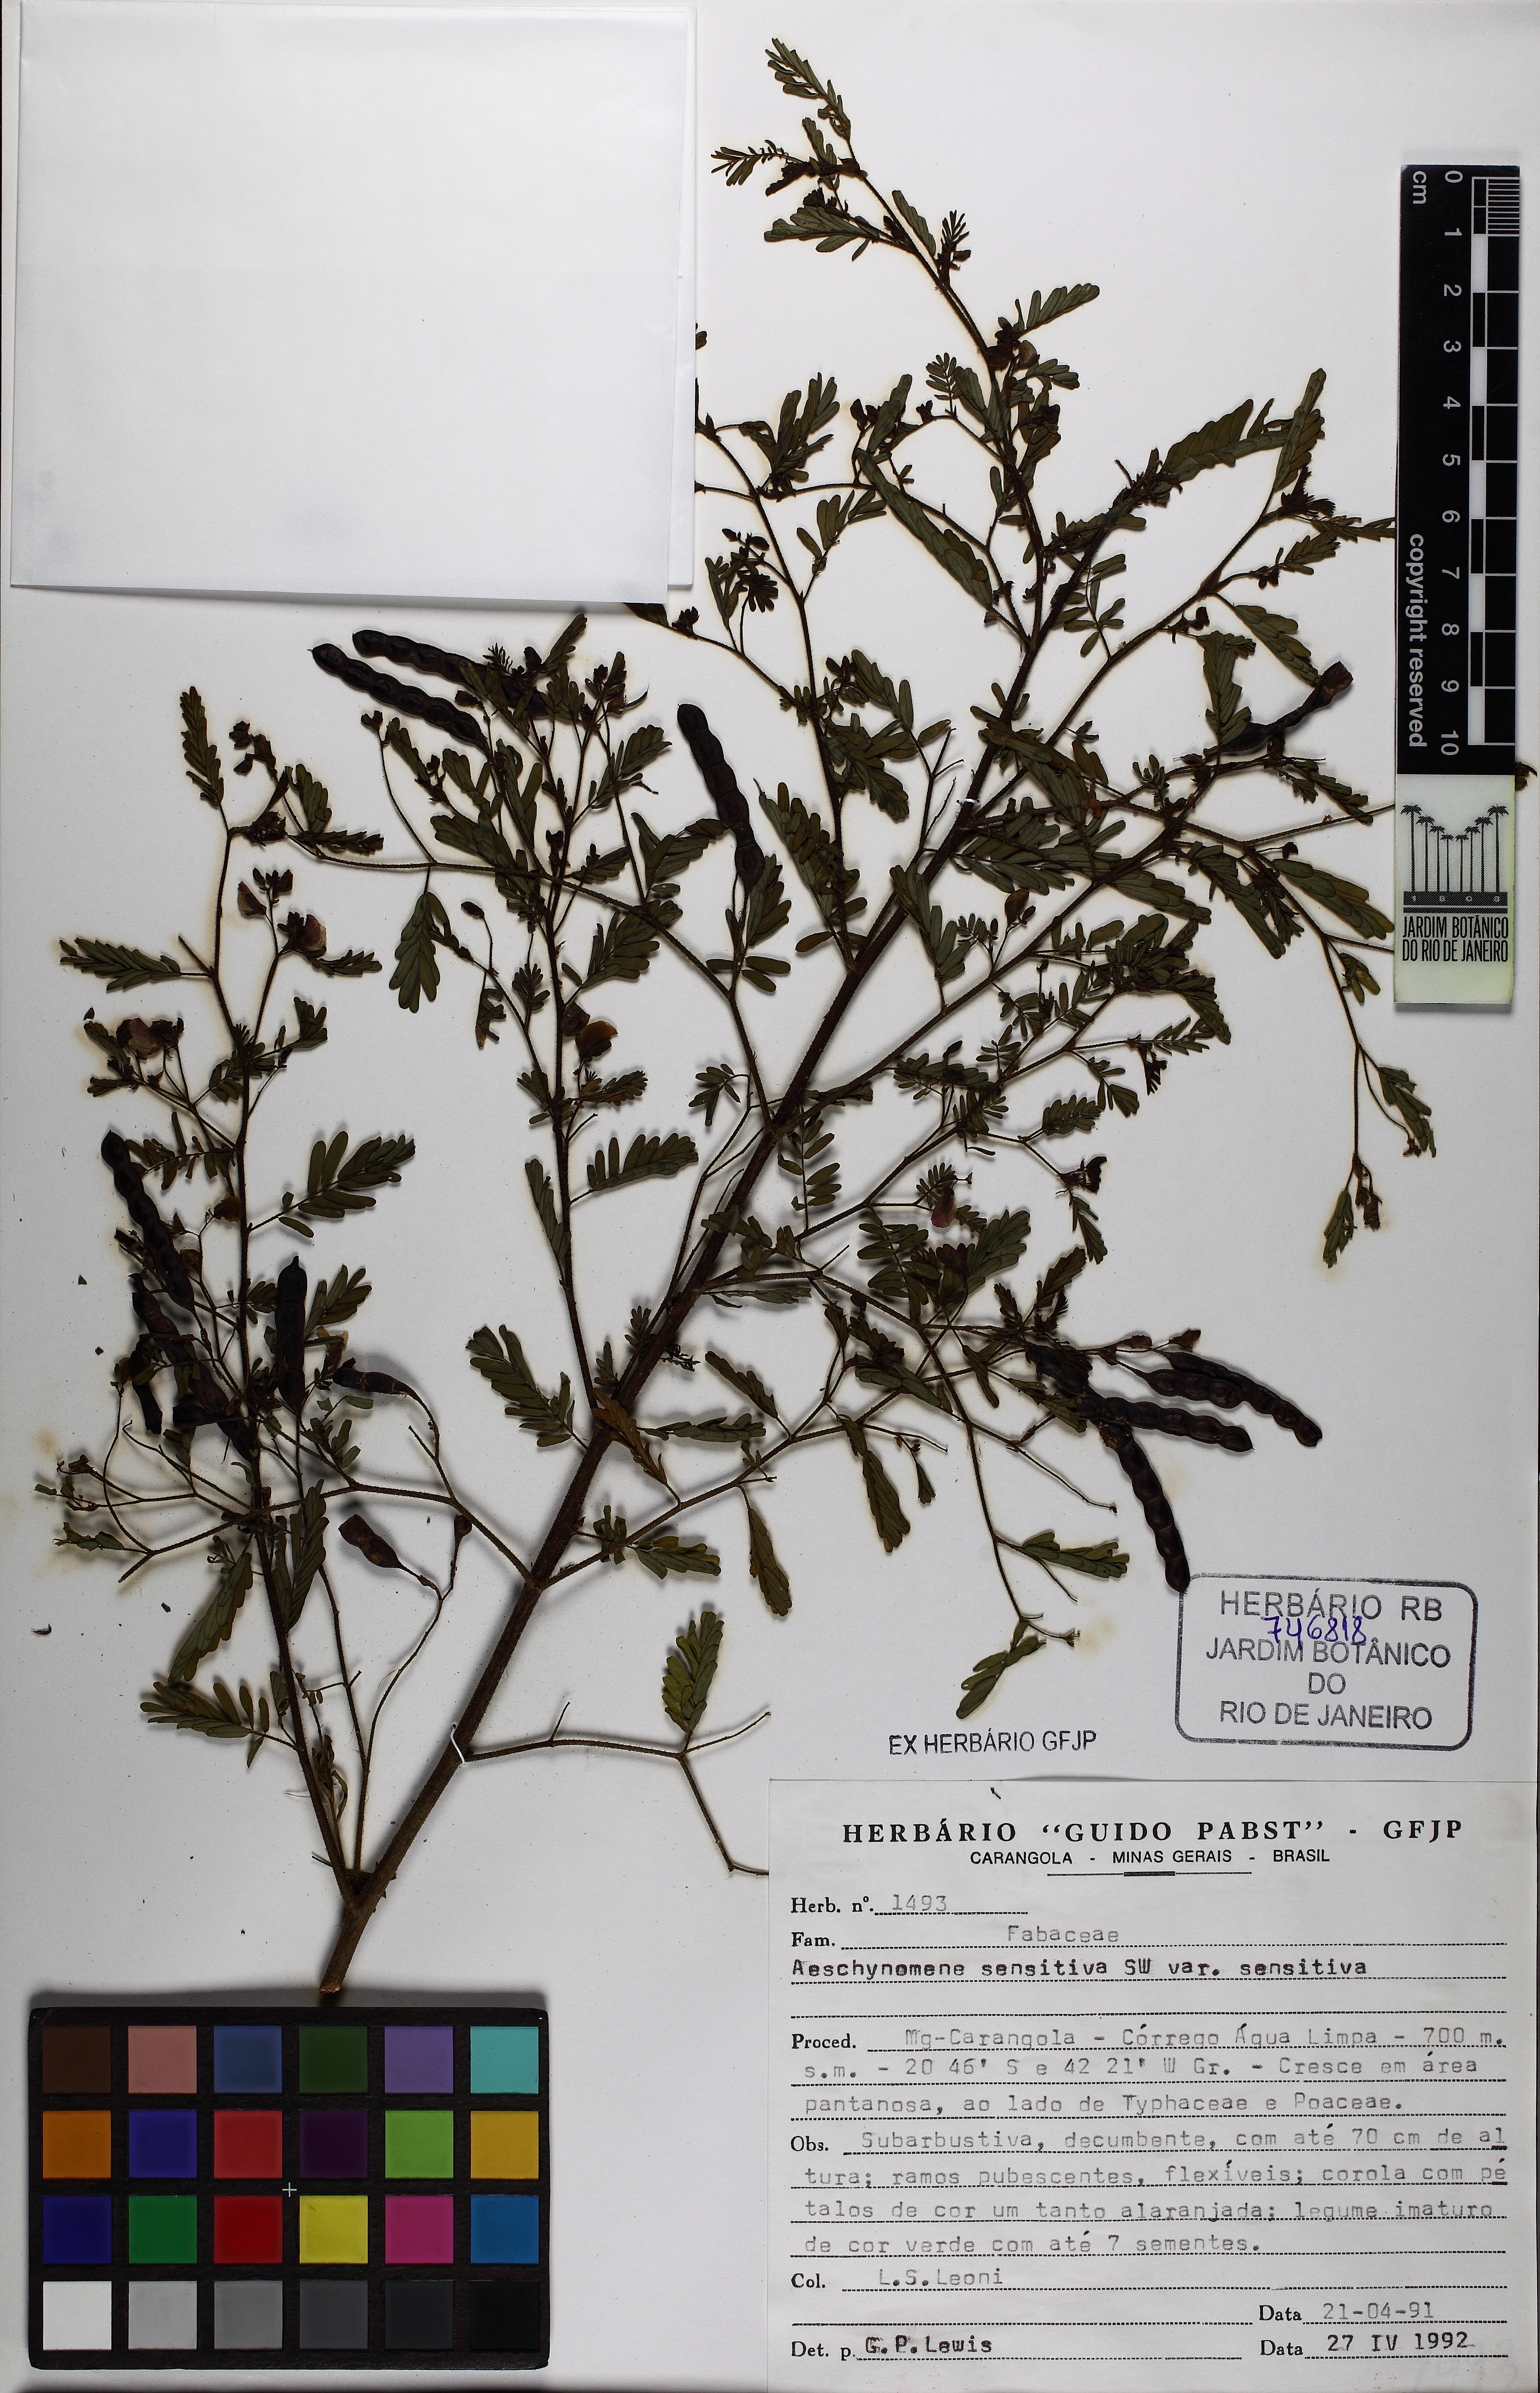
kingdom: Plantae
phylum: Tracheophyta
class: Magnoliopsida
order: Fabales
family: Fabaceae
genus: Aeschynomene
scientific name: Aeschynomene sensitiva
